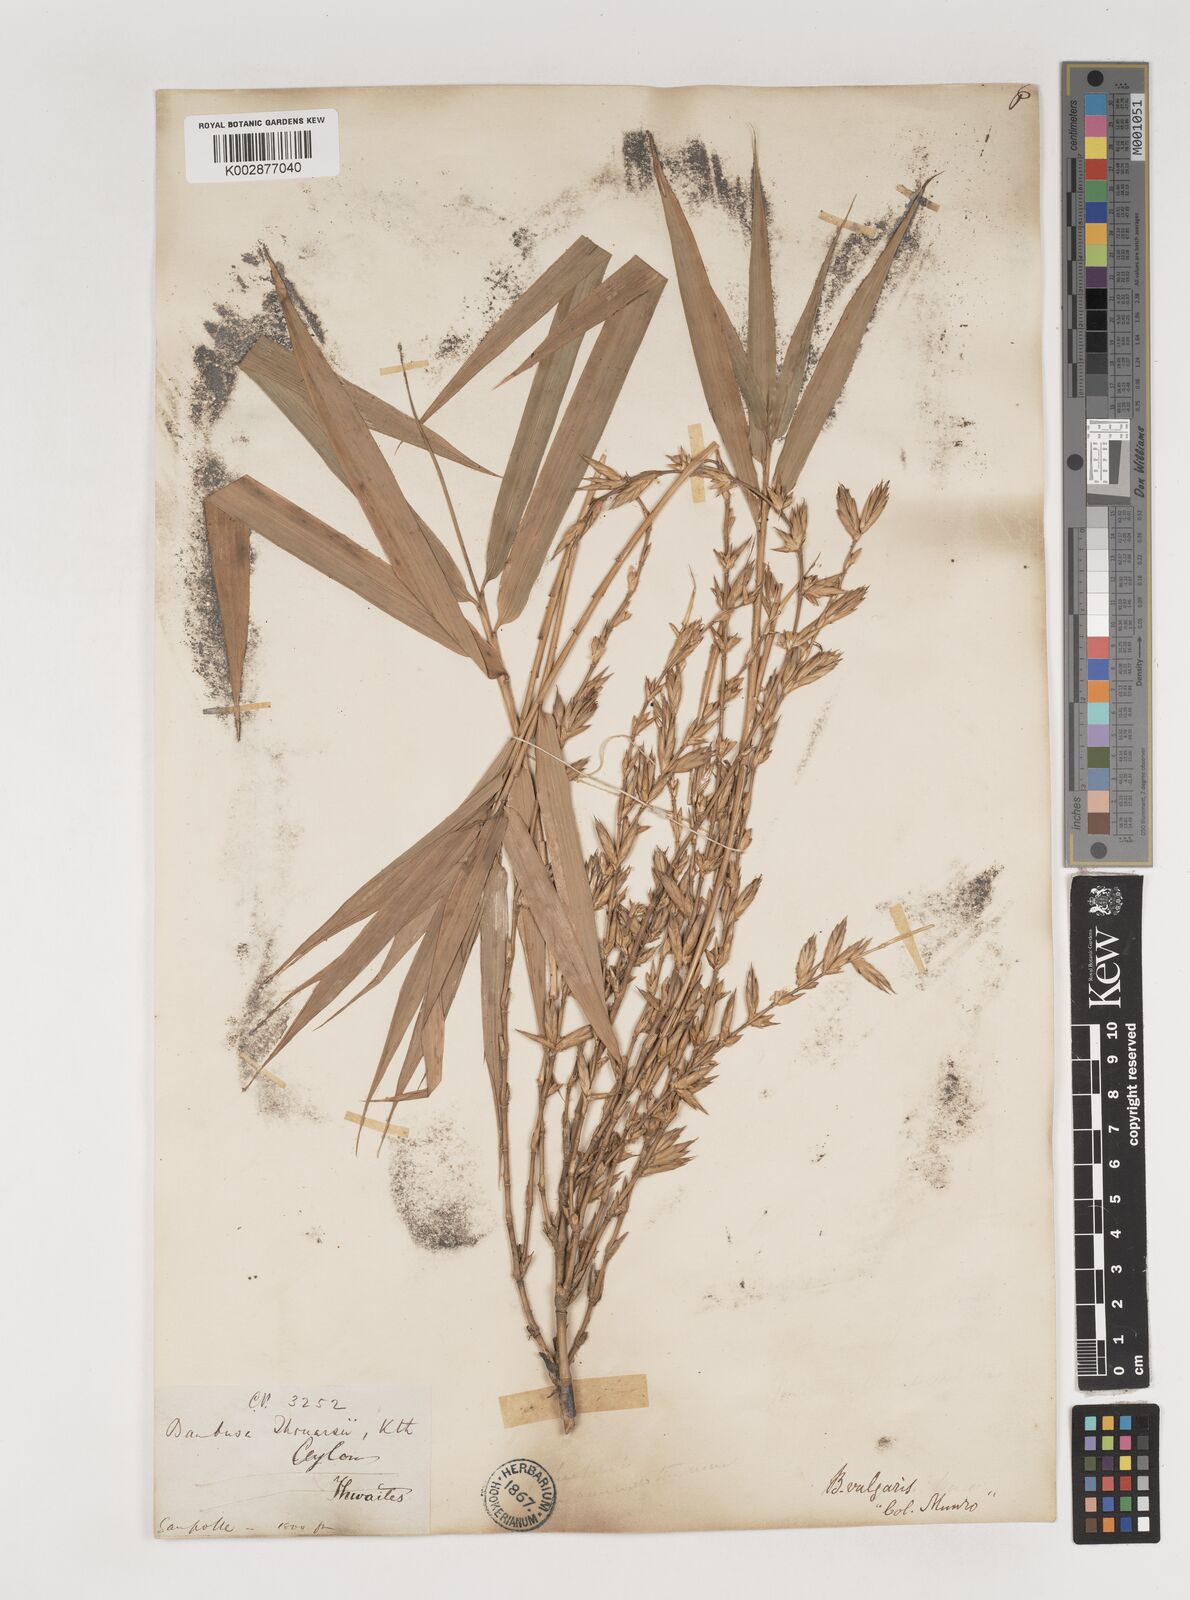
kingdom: Plantae
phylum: Tracheophyta
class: Liliopsida
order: Poales
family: Poaceae
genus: Bambusa
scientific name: Bambusa vulgaris
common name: Common bamboo
